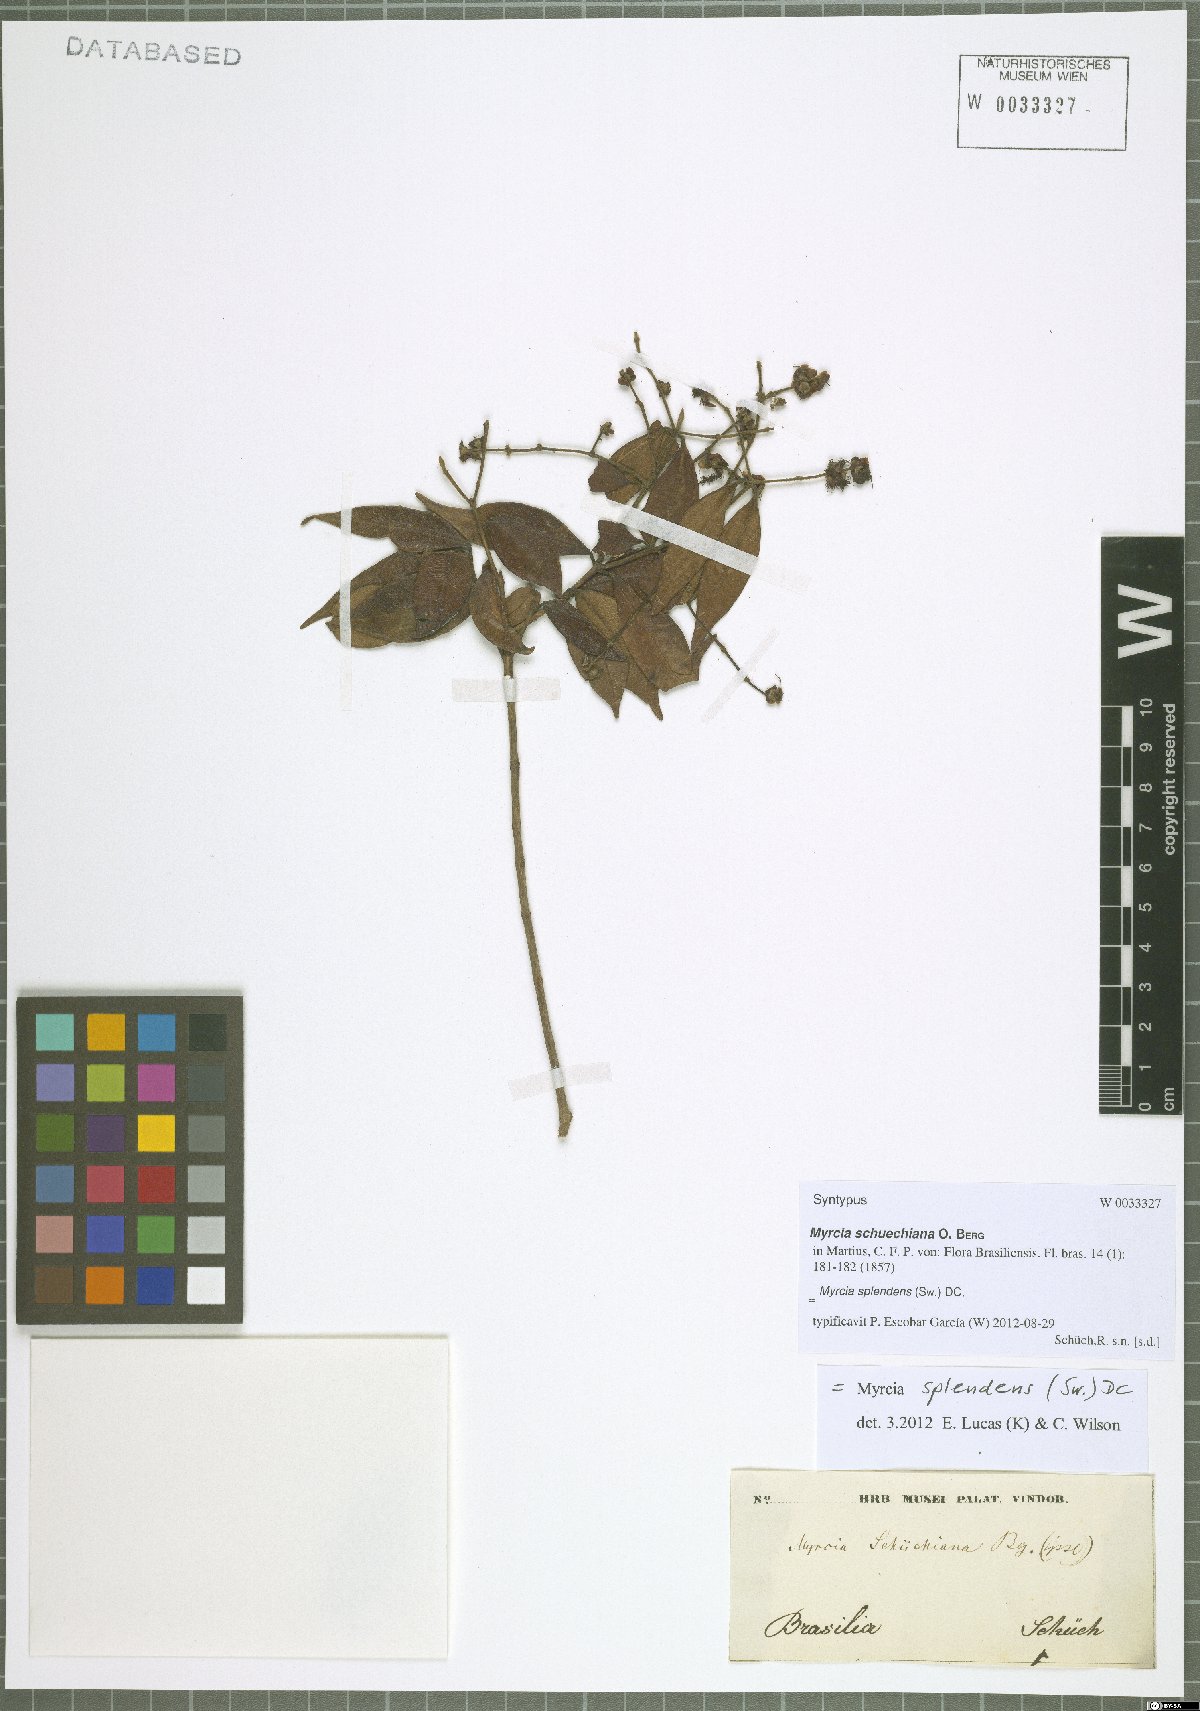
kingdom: Plantae
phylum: Tracheophyta
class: Magnoliopsida
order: Myrtales
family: Myrtaceae
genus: Myrcia
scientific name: Myrcia splendens
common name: Surinam cherry
